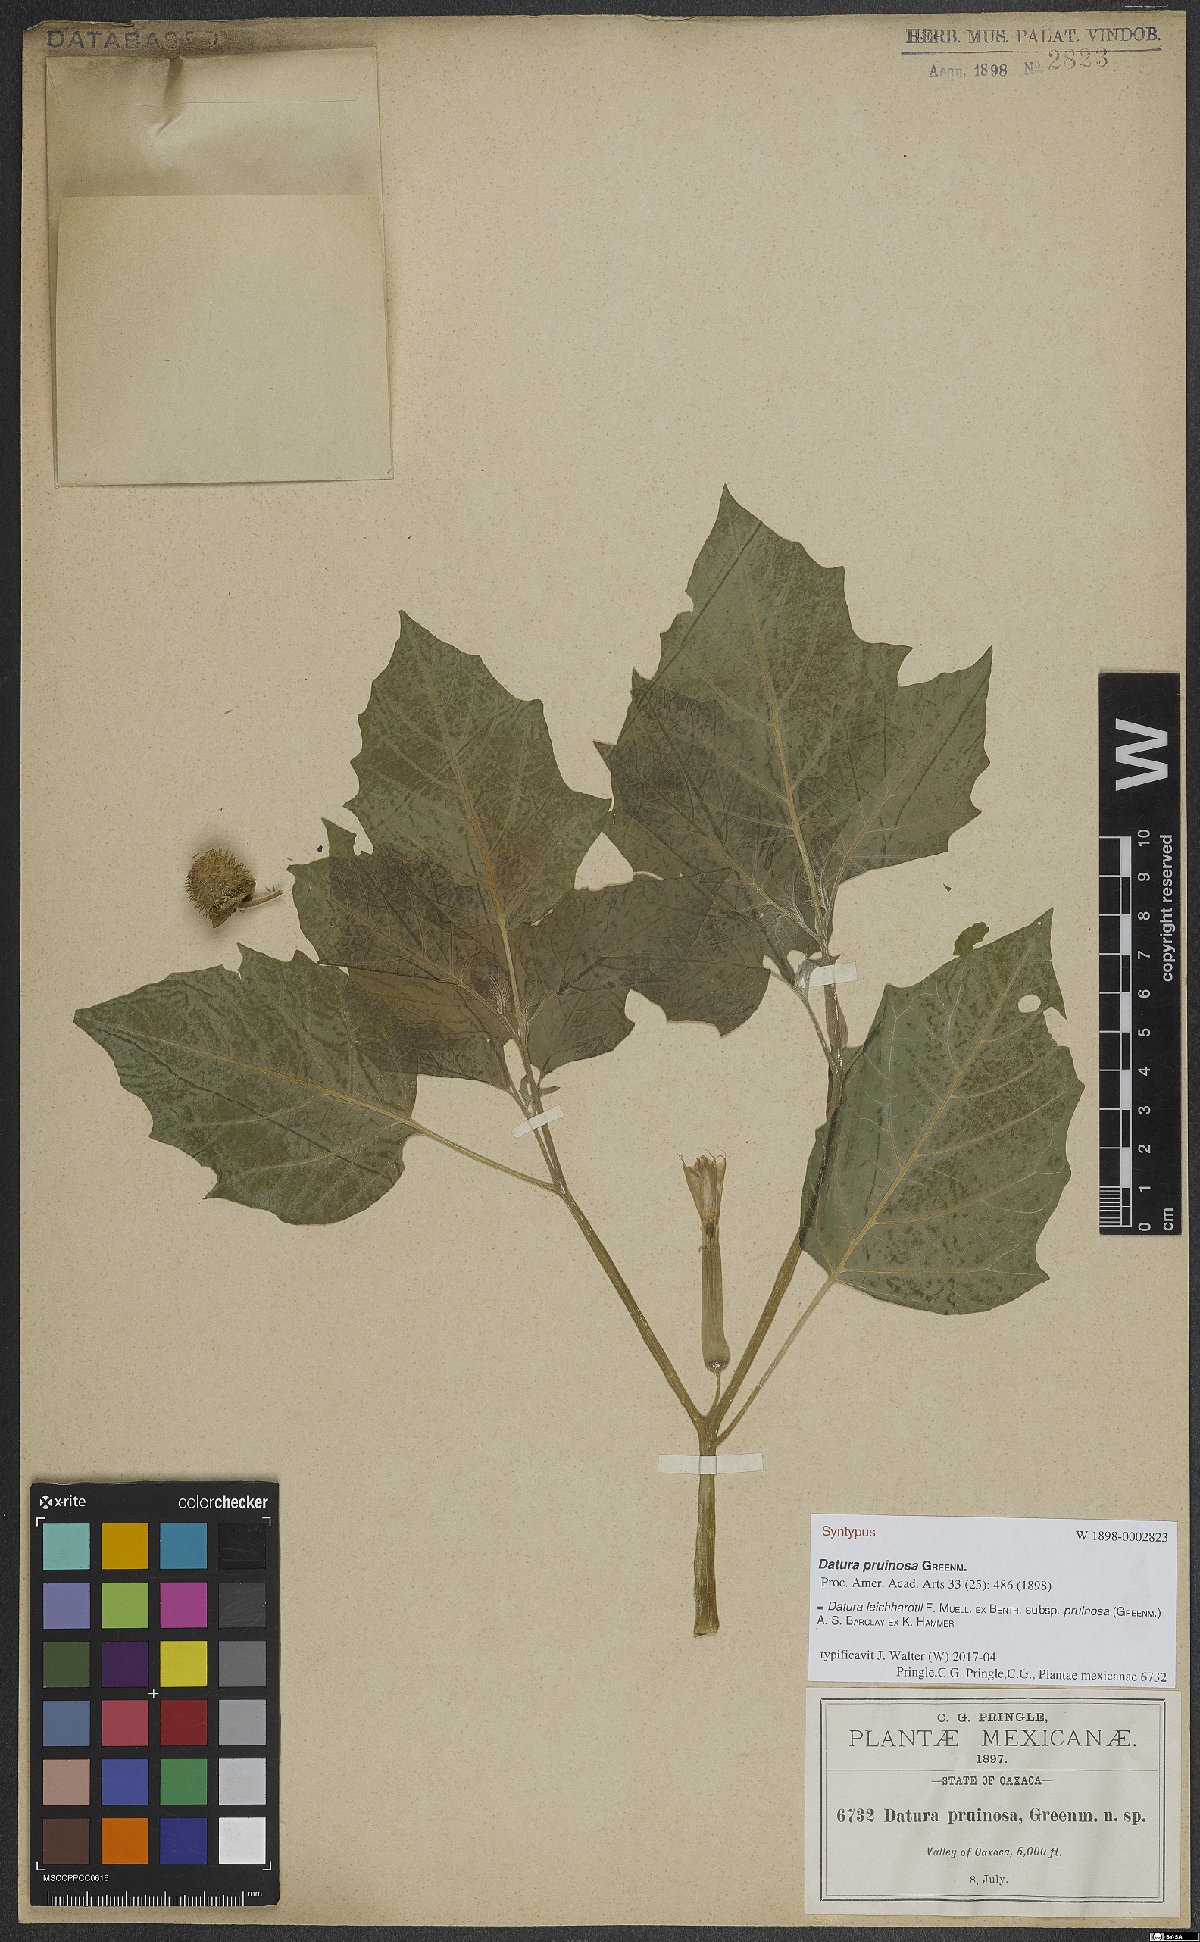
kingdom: Plantae
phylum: Tracheophyta
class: Magnoliopsida
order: Solanales
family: Solanaceae
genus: Datura
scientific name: Datura pruinosa
